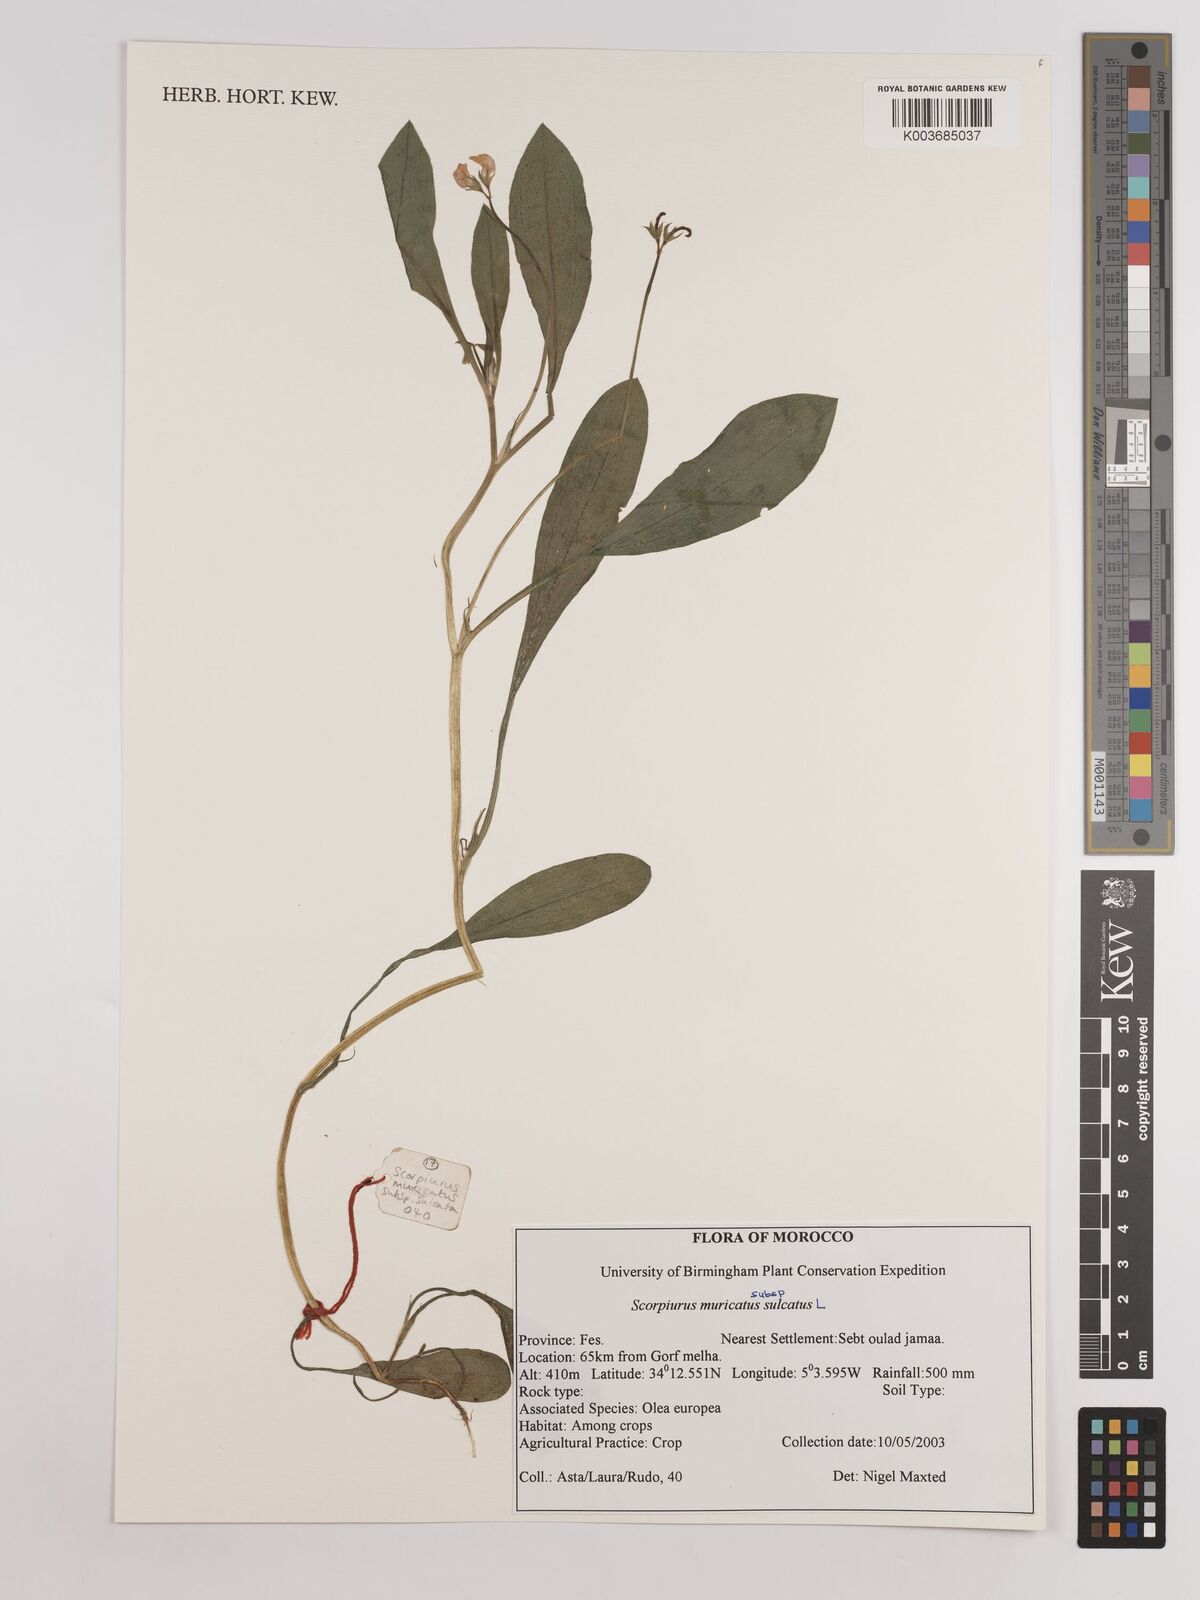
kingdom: Plantae
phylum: Tracheophyta
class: Magnoliopsida
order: Fabales
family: Fabaceae
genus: Scorpiurus
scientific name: Scorpiurus muricatus
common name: Caterpillar-plant
